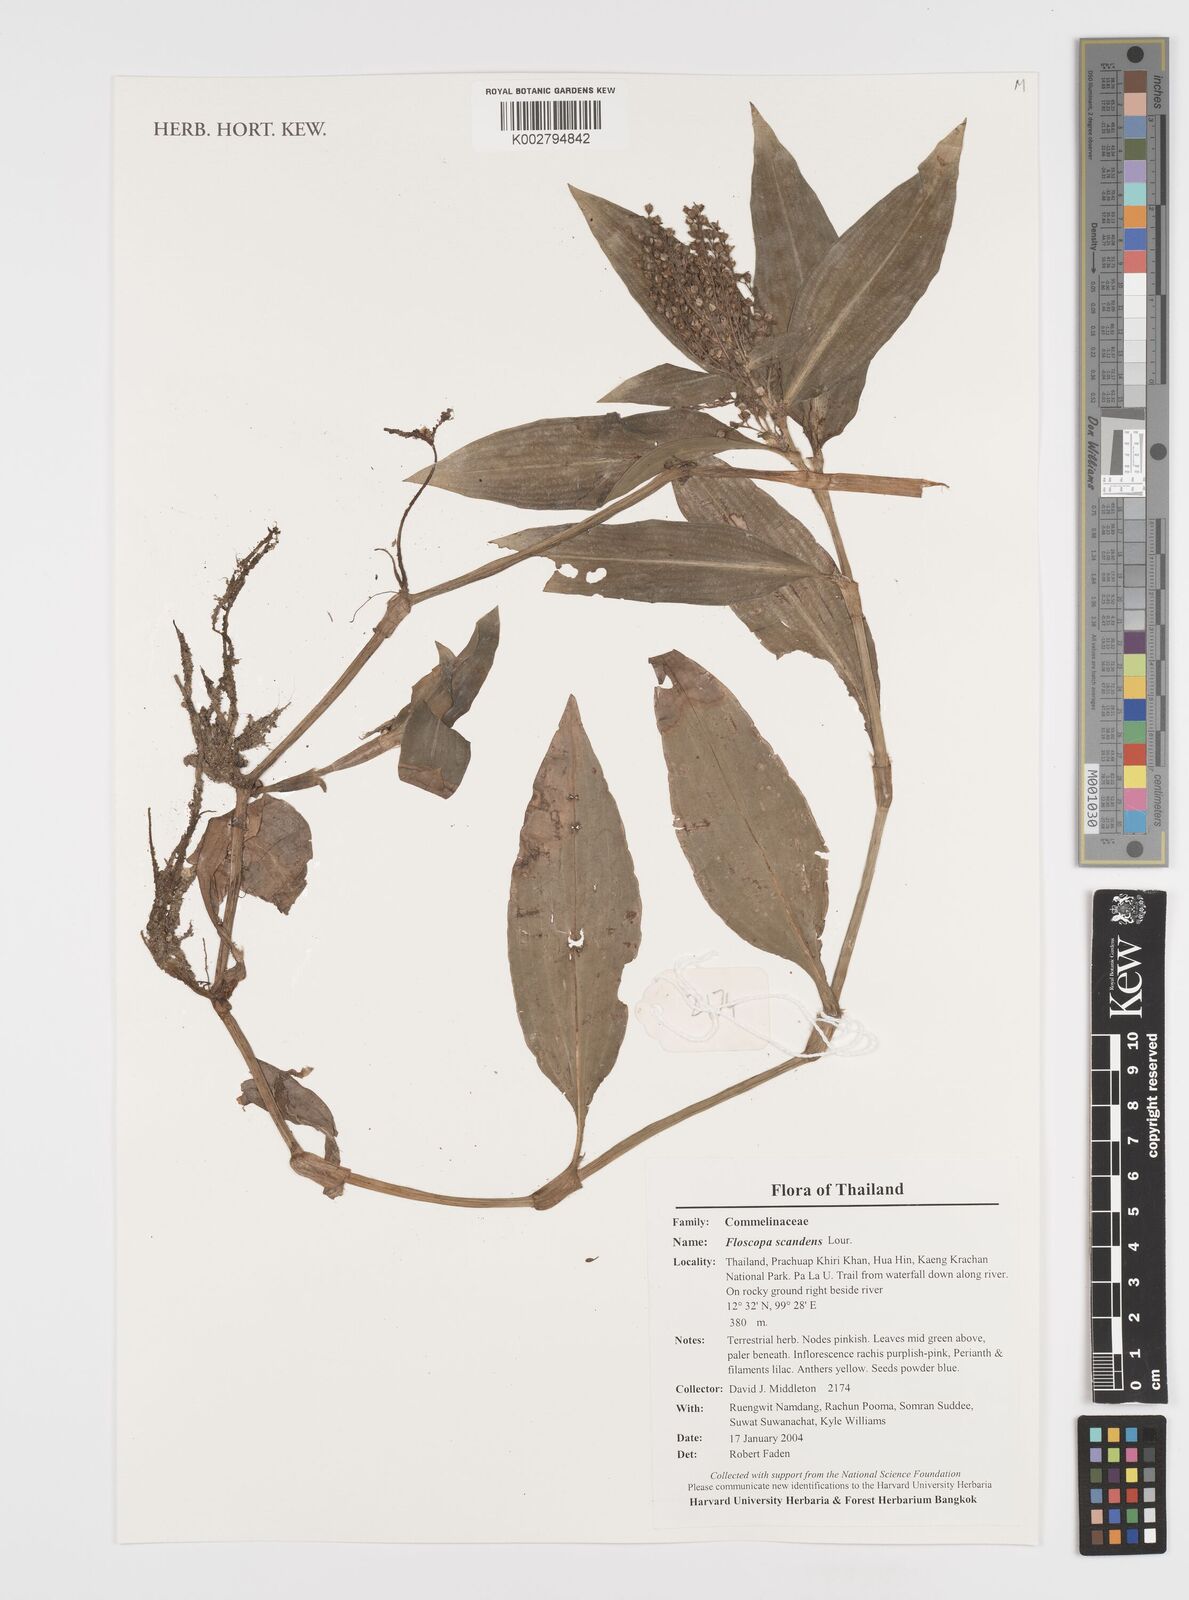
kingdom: Plantae
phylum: Tracheophyta
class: Liliopsida
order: Commelinales
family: Commelinaceae
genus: Floscopa
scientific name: Floscopa scandens
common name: Climbing flower cup
